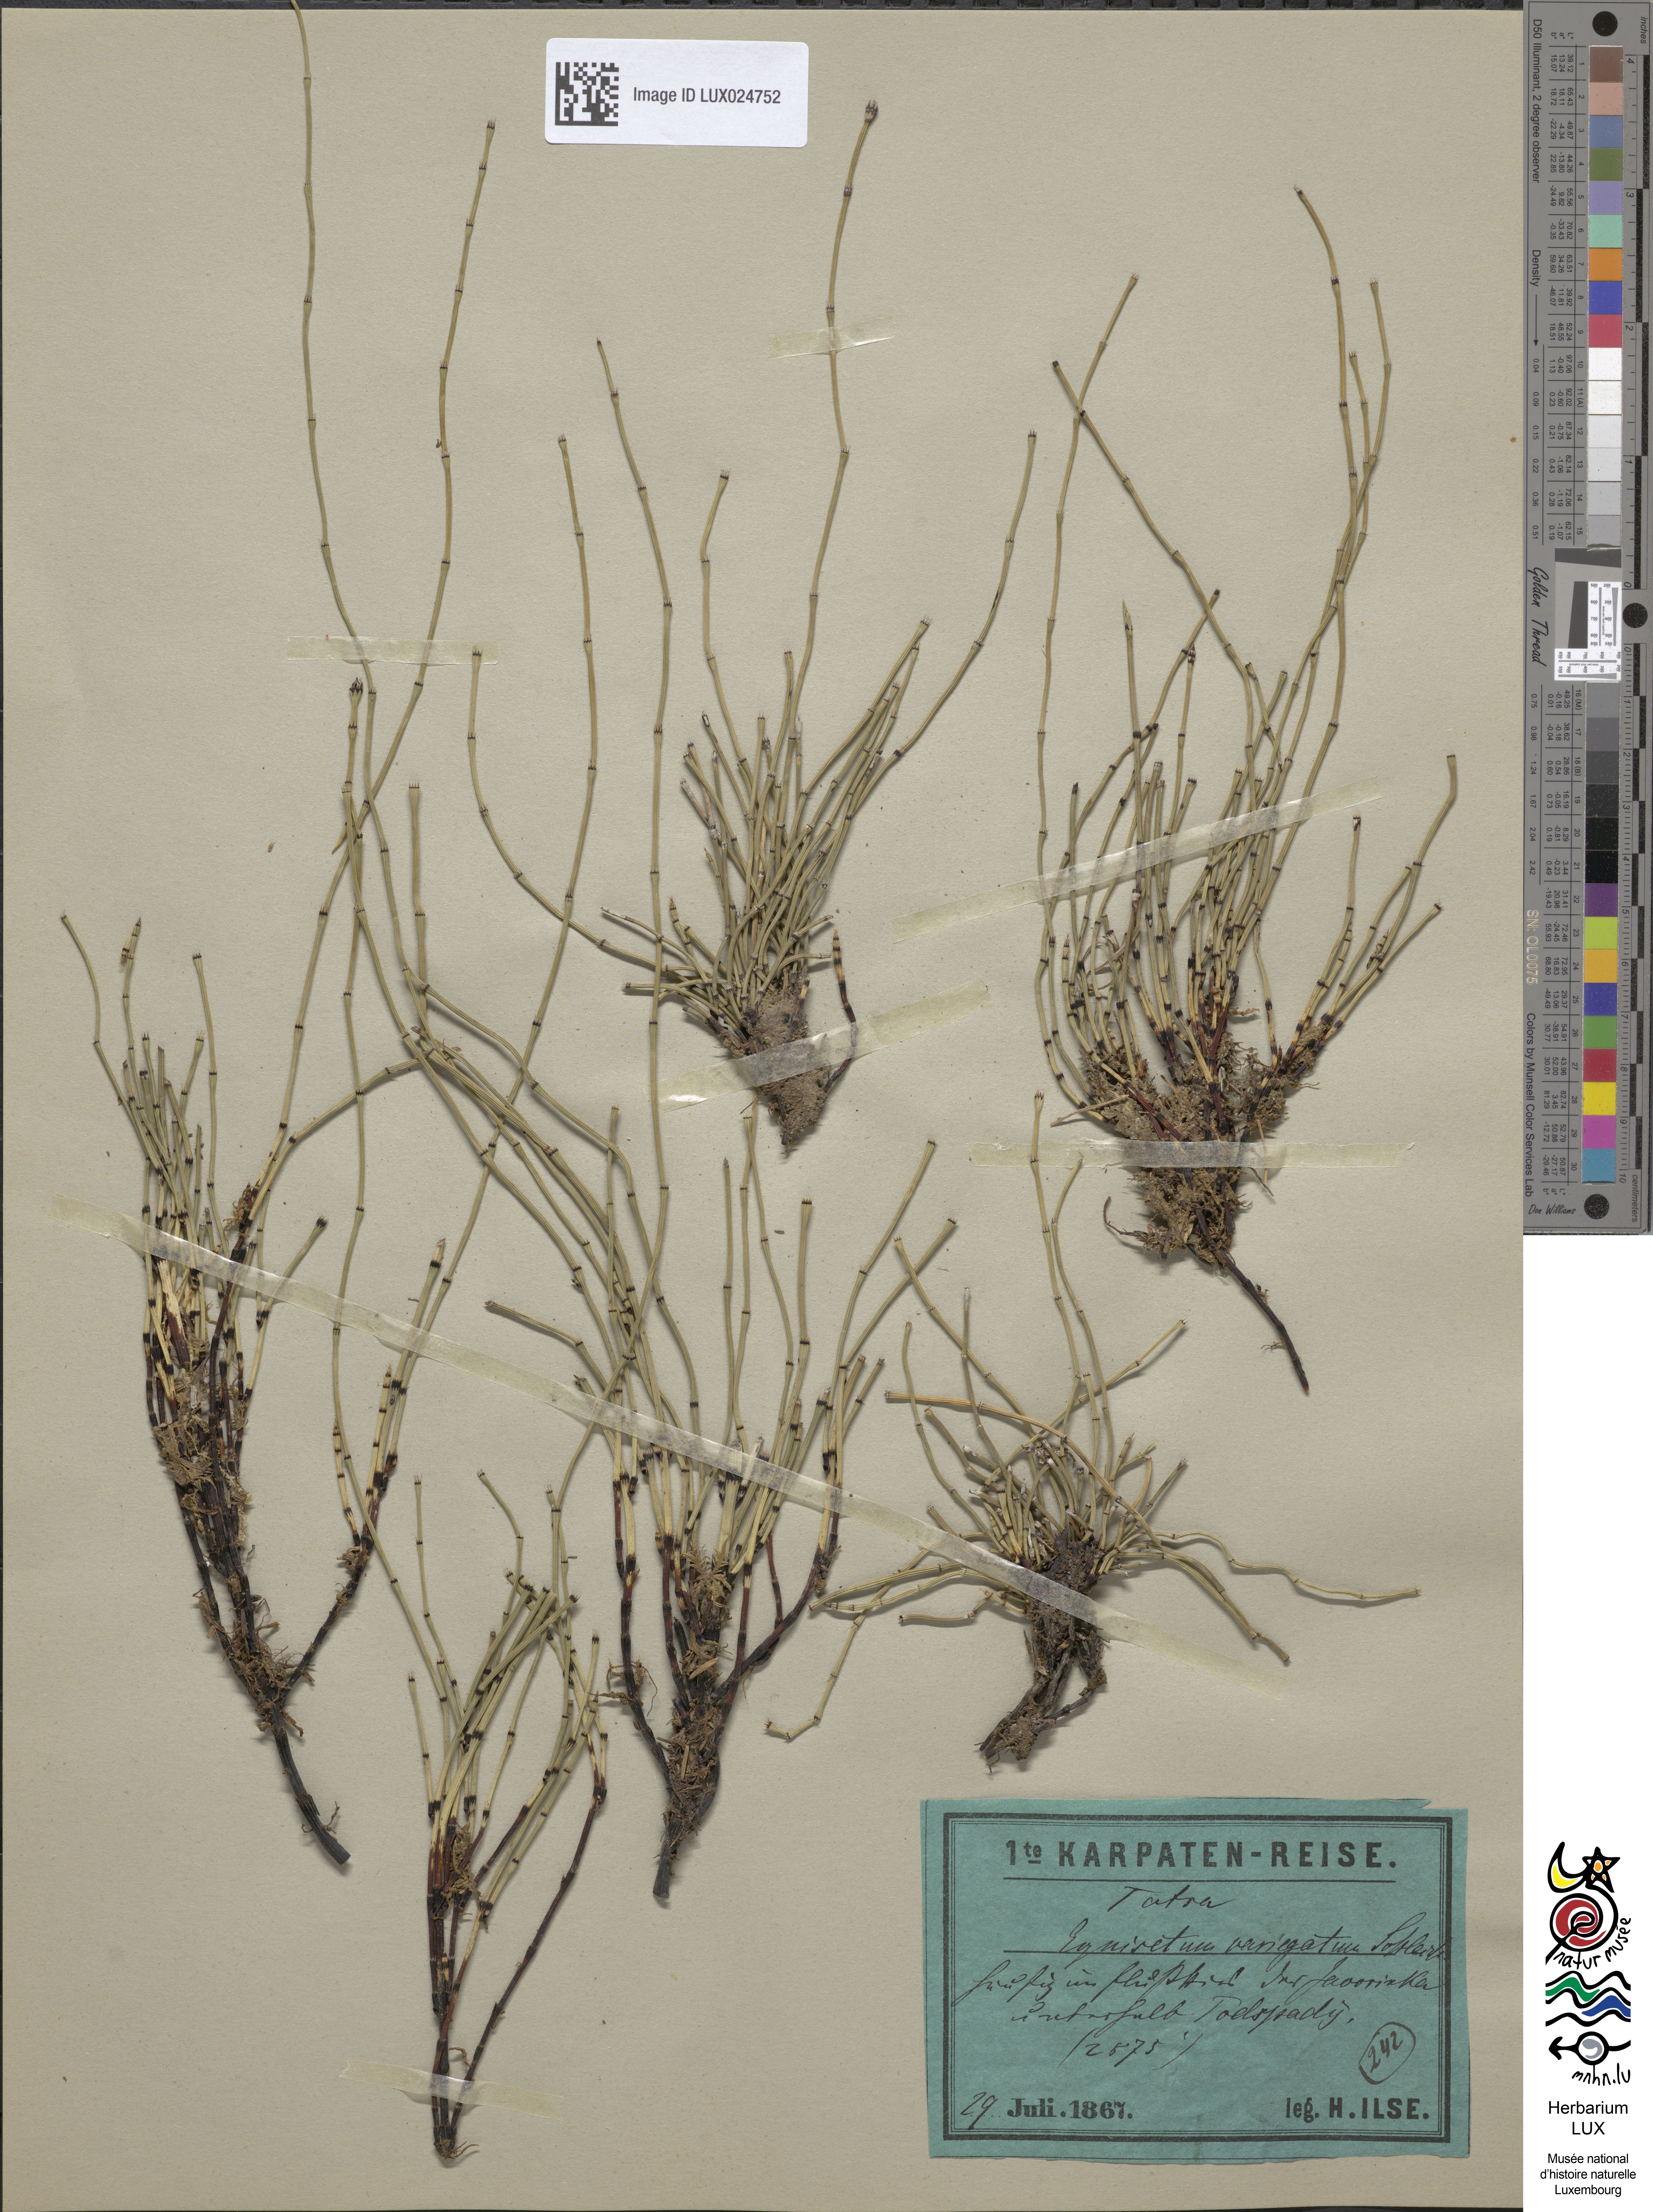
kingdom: Plantae
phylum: Tracheophyta
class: Polypodiopsida
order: Equisetales
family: Equisetaceae
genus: Equisetum
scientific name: Equisetum variegatum
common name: Variegated horsetail
